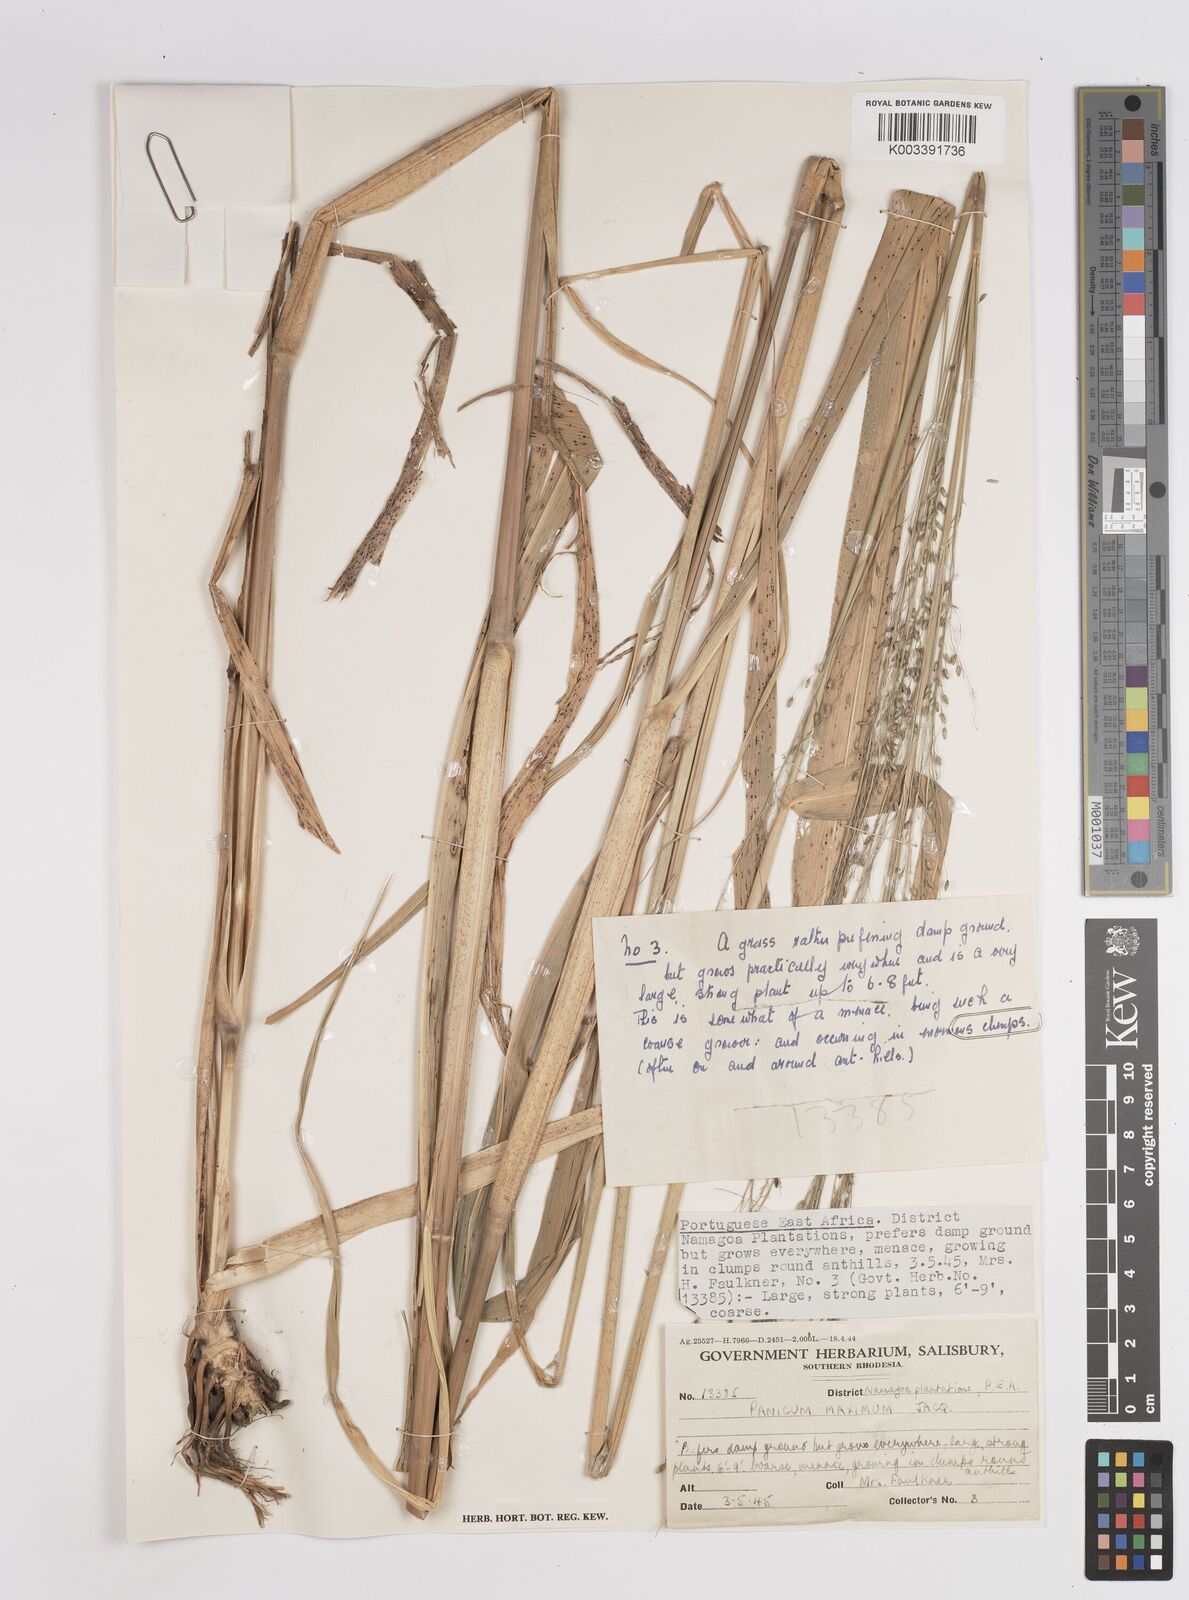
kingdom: Plantae
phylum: Tracheophyta
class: Liliopsida
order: Poales
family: Poaceae
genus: Megathyrsus
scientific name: Megathyrsus maximus
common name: Guineagrass
